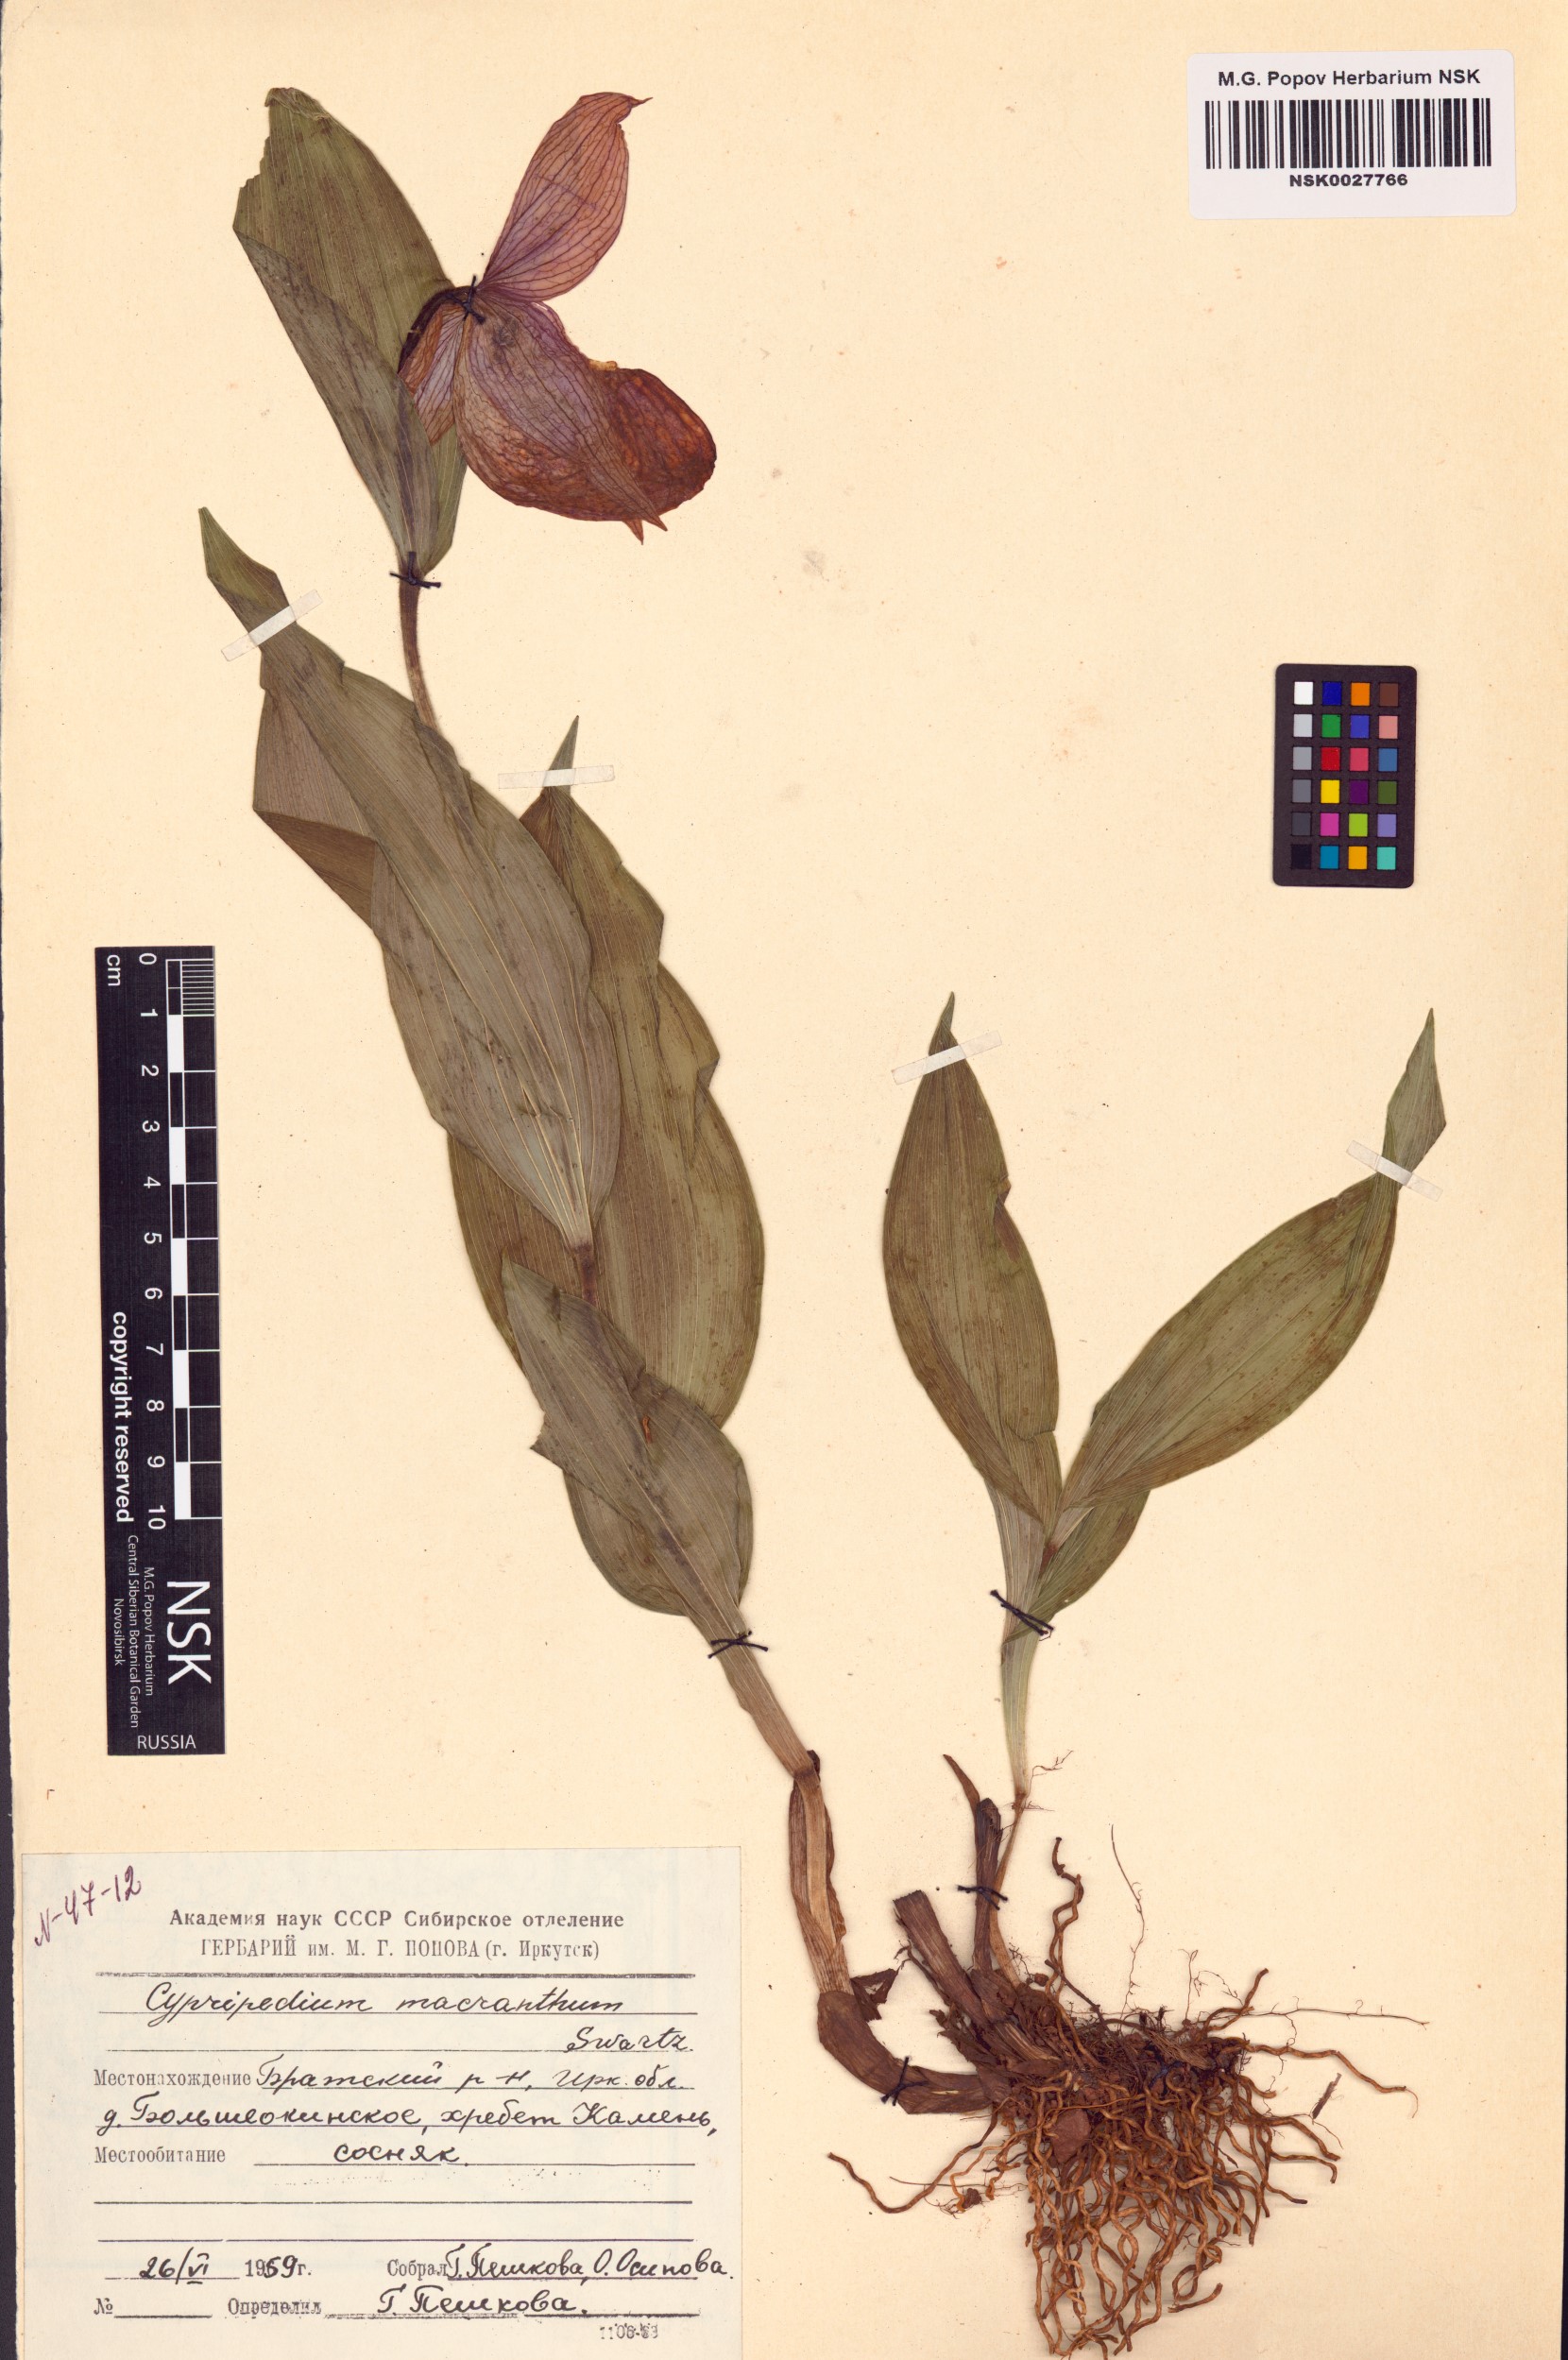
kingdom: Plantae
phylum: Tracheophyta
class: Liliopsida
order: Asparagales
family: Orchidaceae
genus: Cypripedium
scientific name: Cypripedium macranthos
